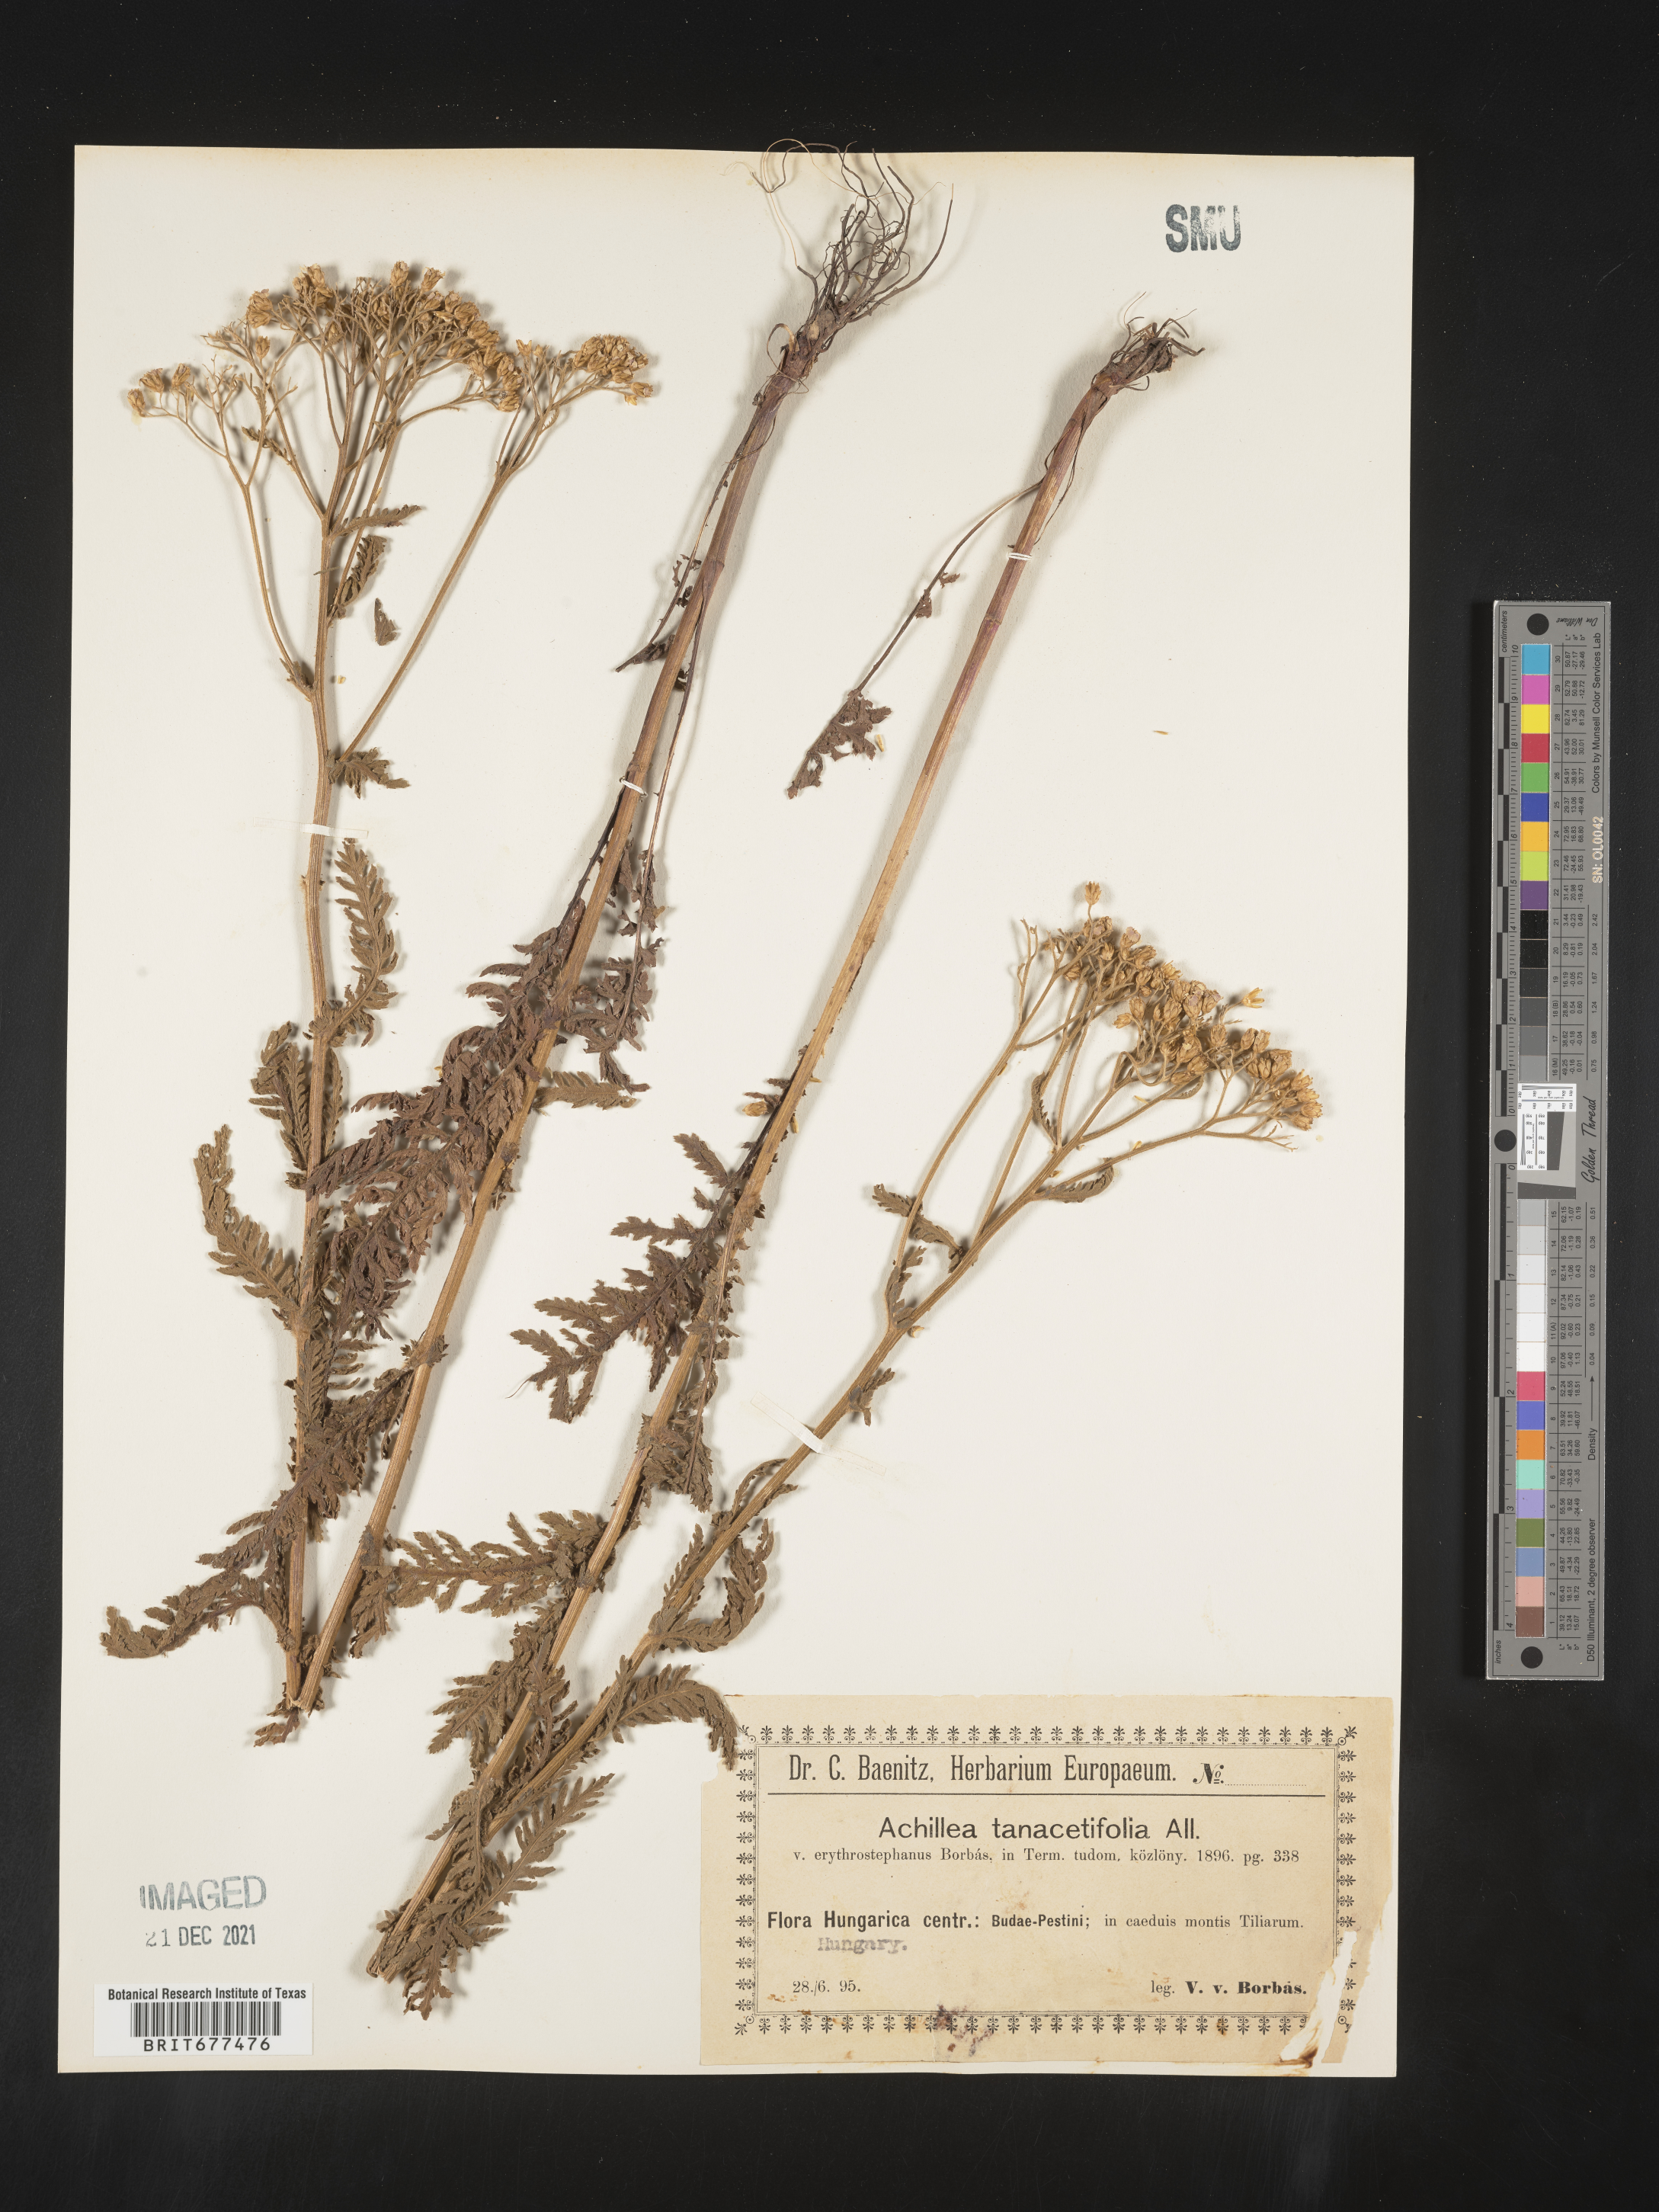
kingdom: Plantae
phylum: Tracheophyta
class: Magnoliopsida
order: Asterales
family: Asteraceae
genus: Achillea
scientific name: Achillea
